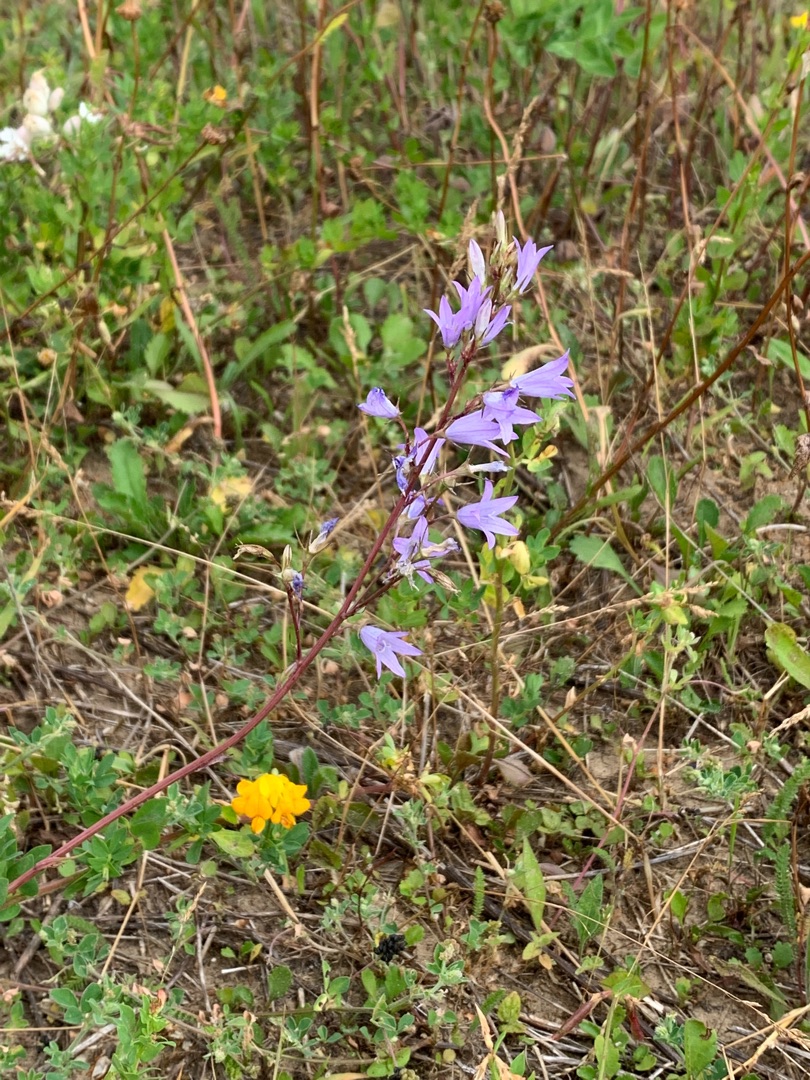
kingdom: Plantae
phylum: Tracheophyta
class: Magnoliopsida
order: Asterales
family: Campanulaceae
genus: Campanula
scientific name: Campanula rapunculus
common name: Rapunsel-klokke
